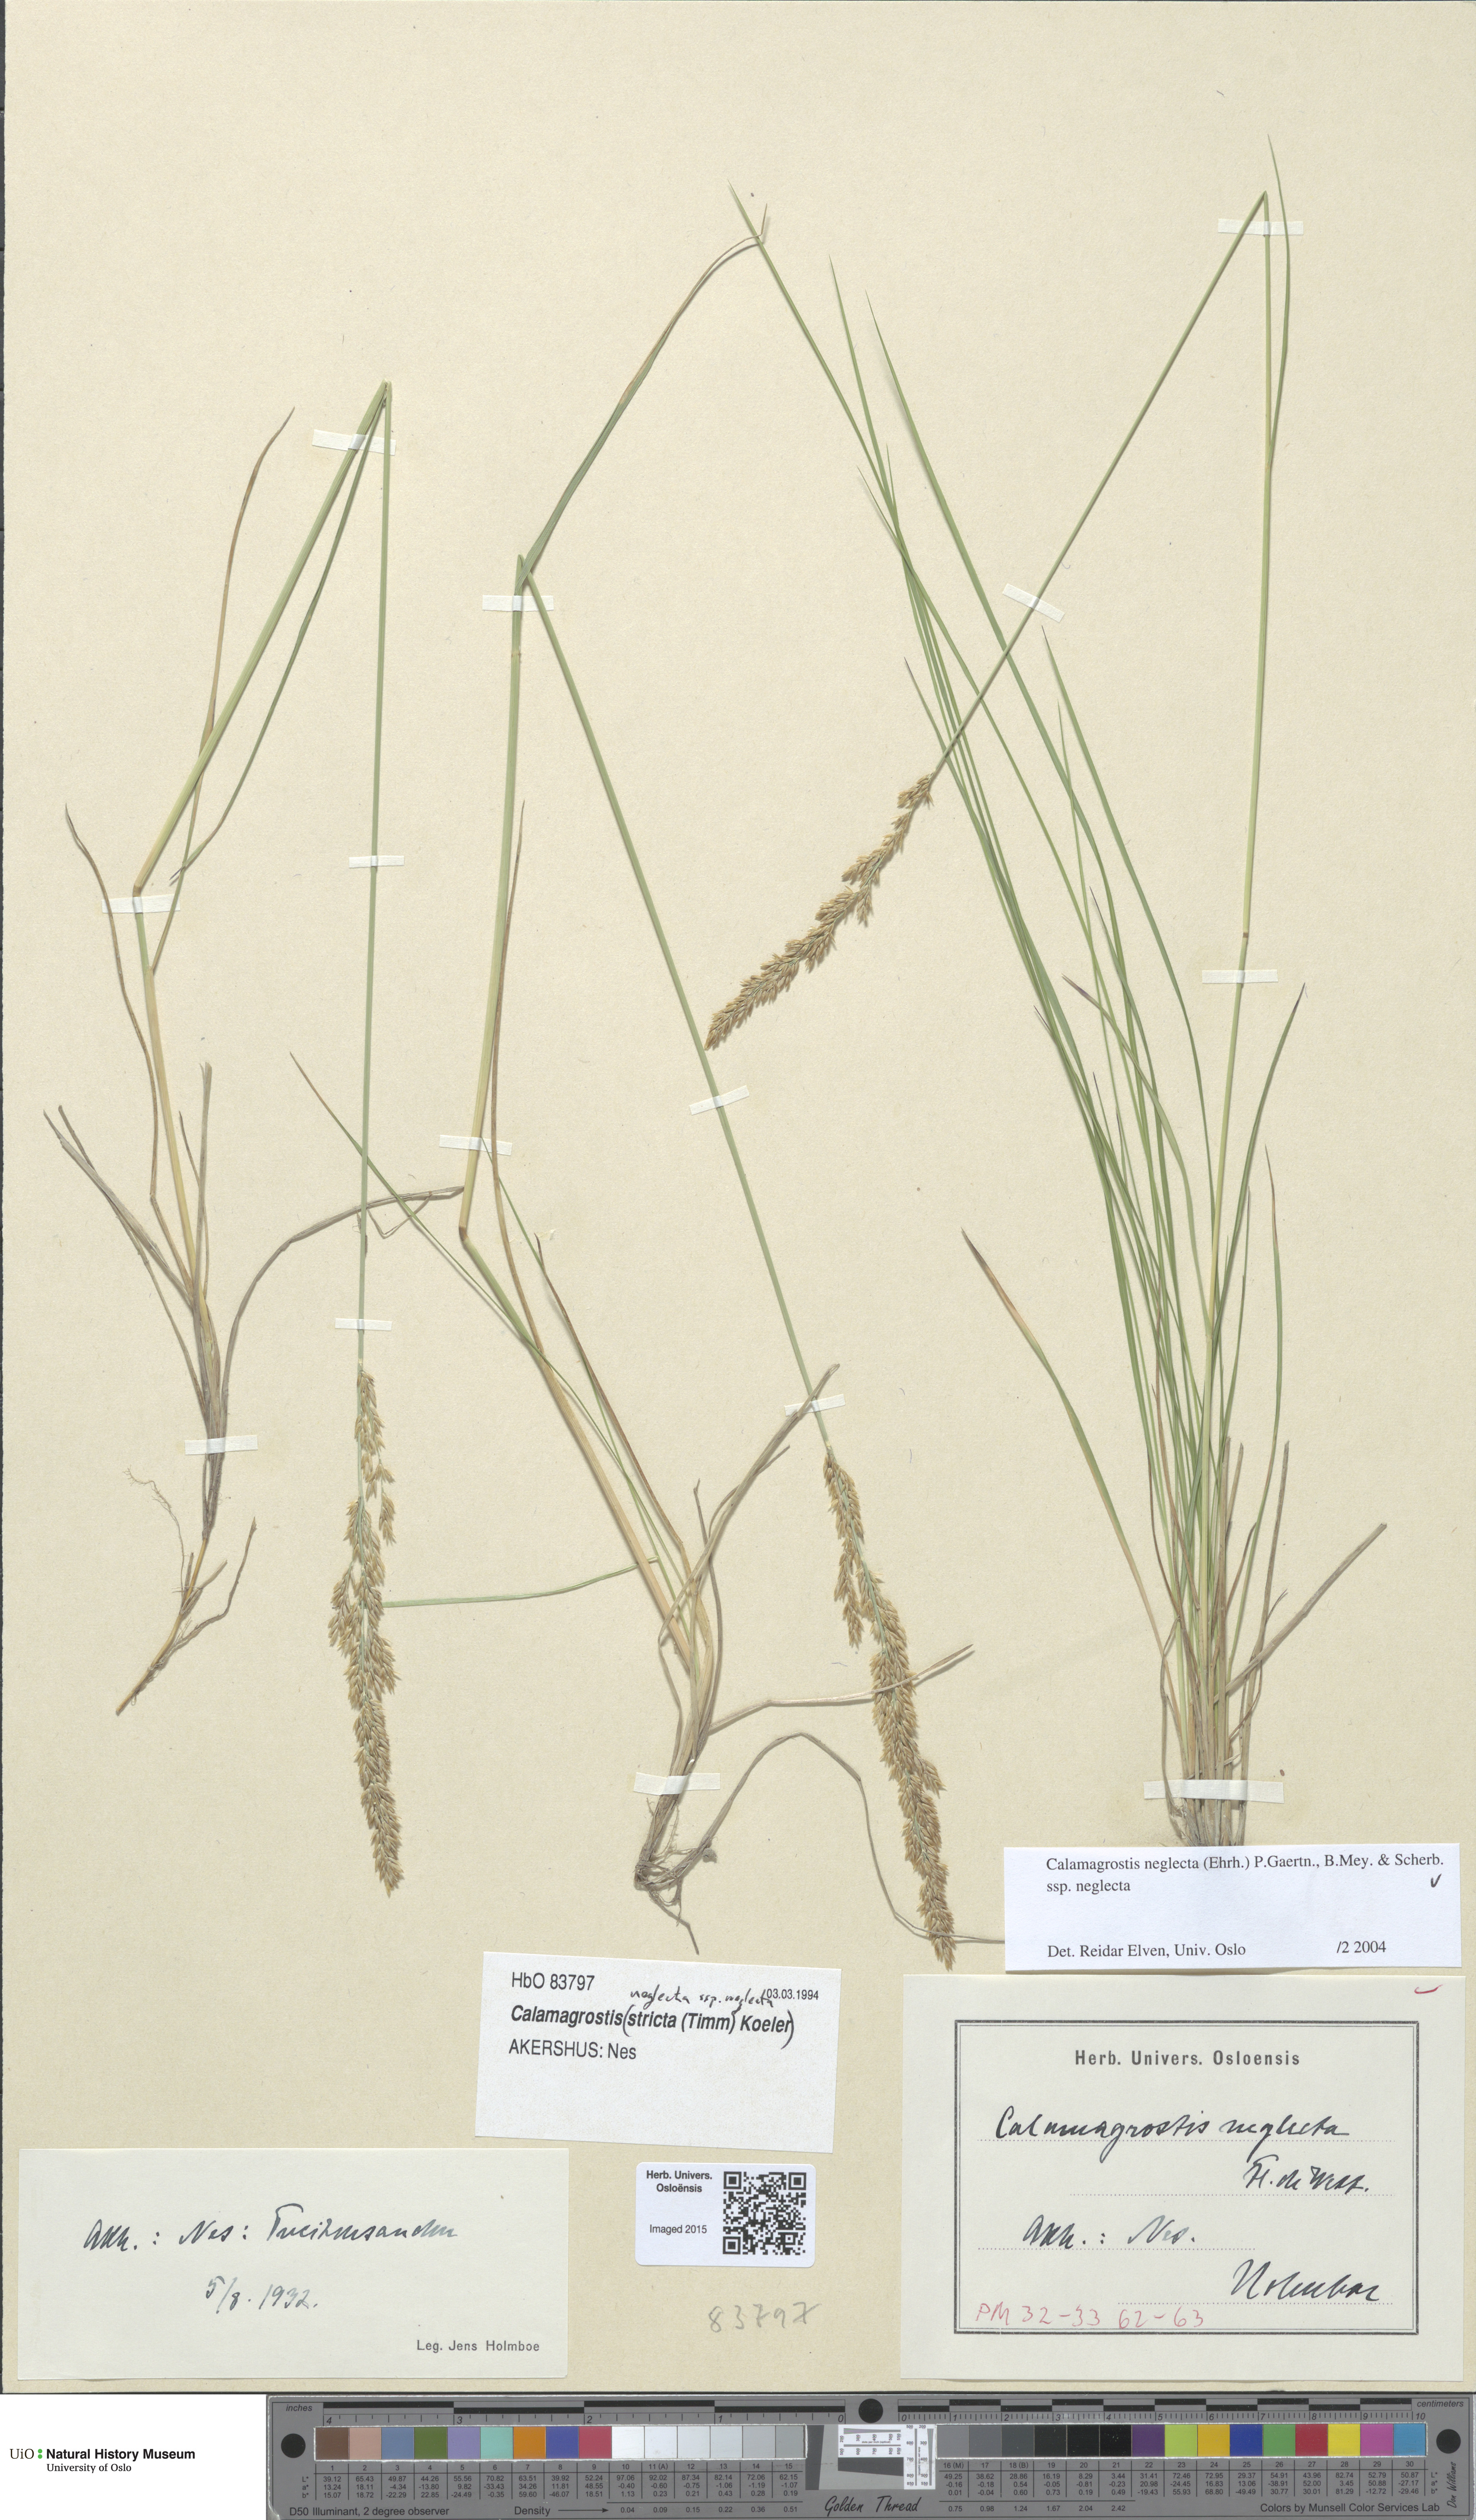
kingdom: Plantae
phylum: Tracheophyta
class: Liliopsida
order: Poales
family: Poaceae
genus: Achnatherum
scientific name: Achnatherum calamagrostis
